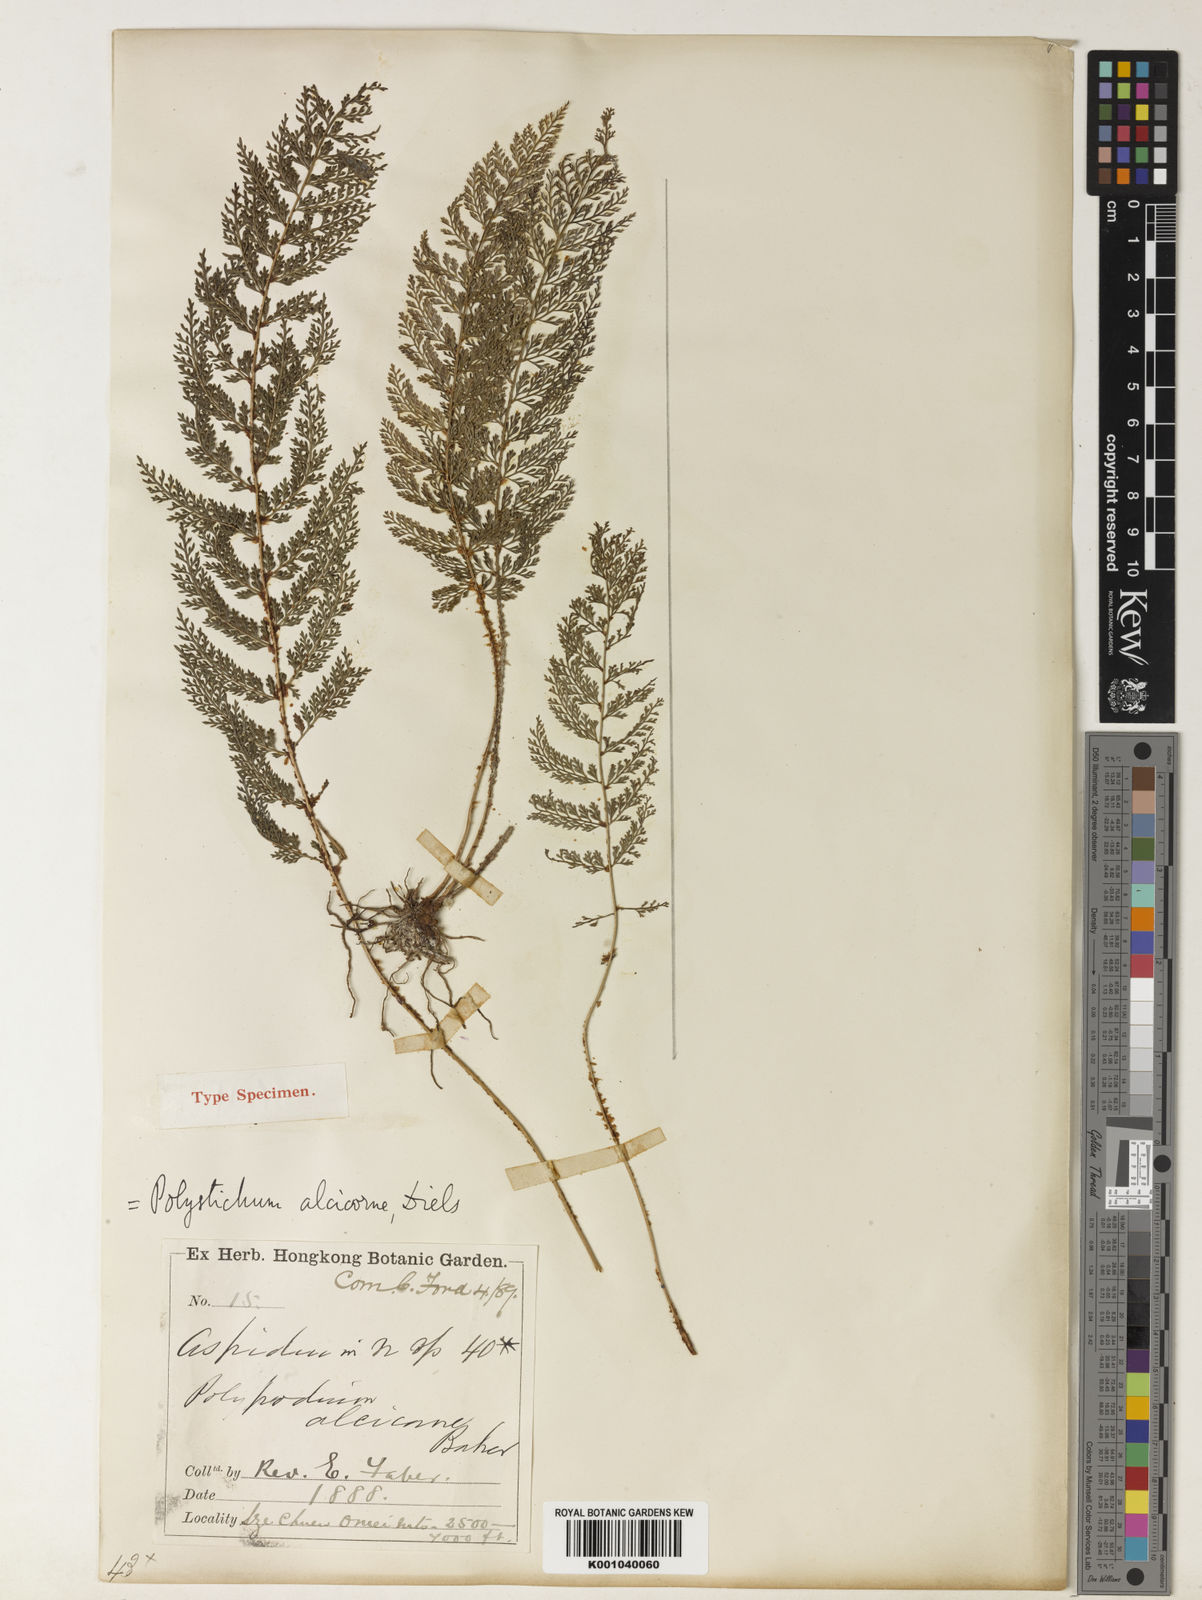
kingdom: Plantae
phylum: Tracheophyta
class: Polypodiopsida
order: Polypodiales
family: Dryopteridaceae
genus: Polystichum
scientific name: Polystichum alcicorne
